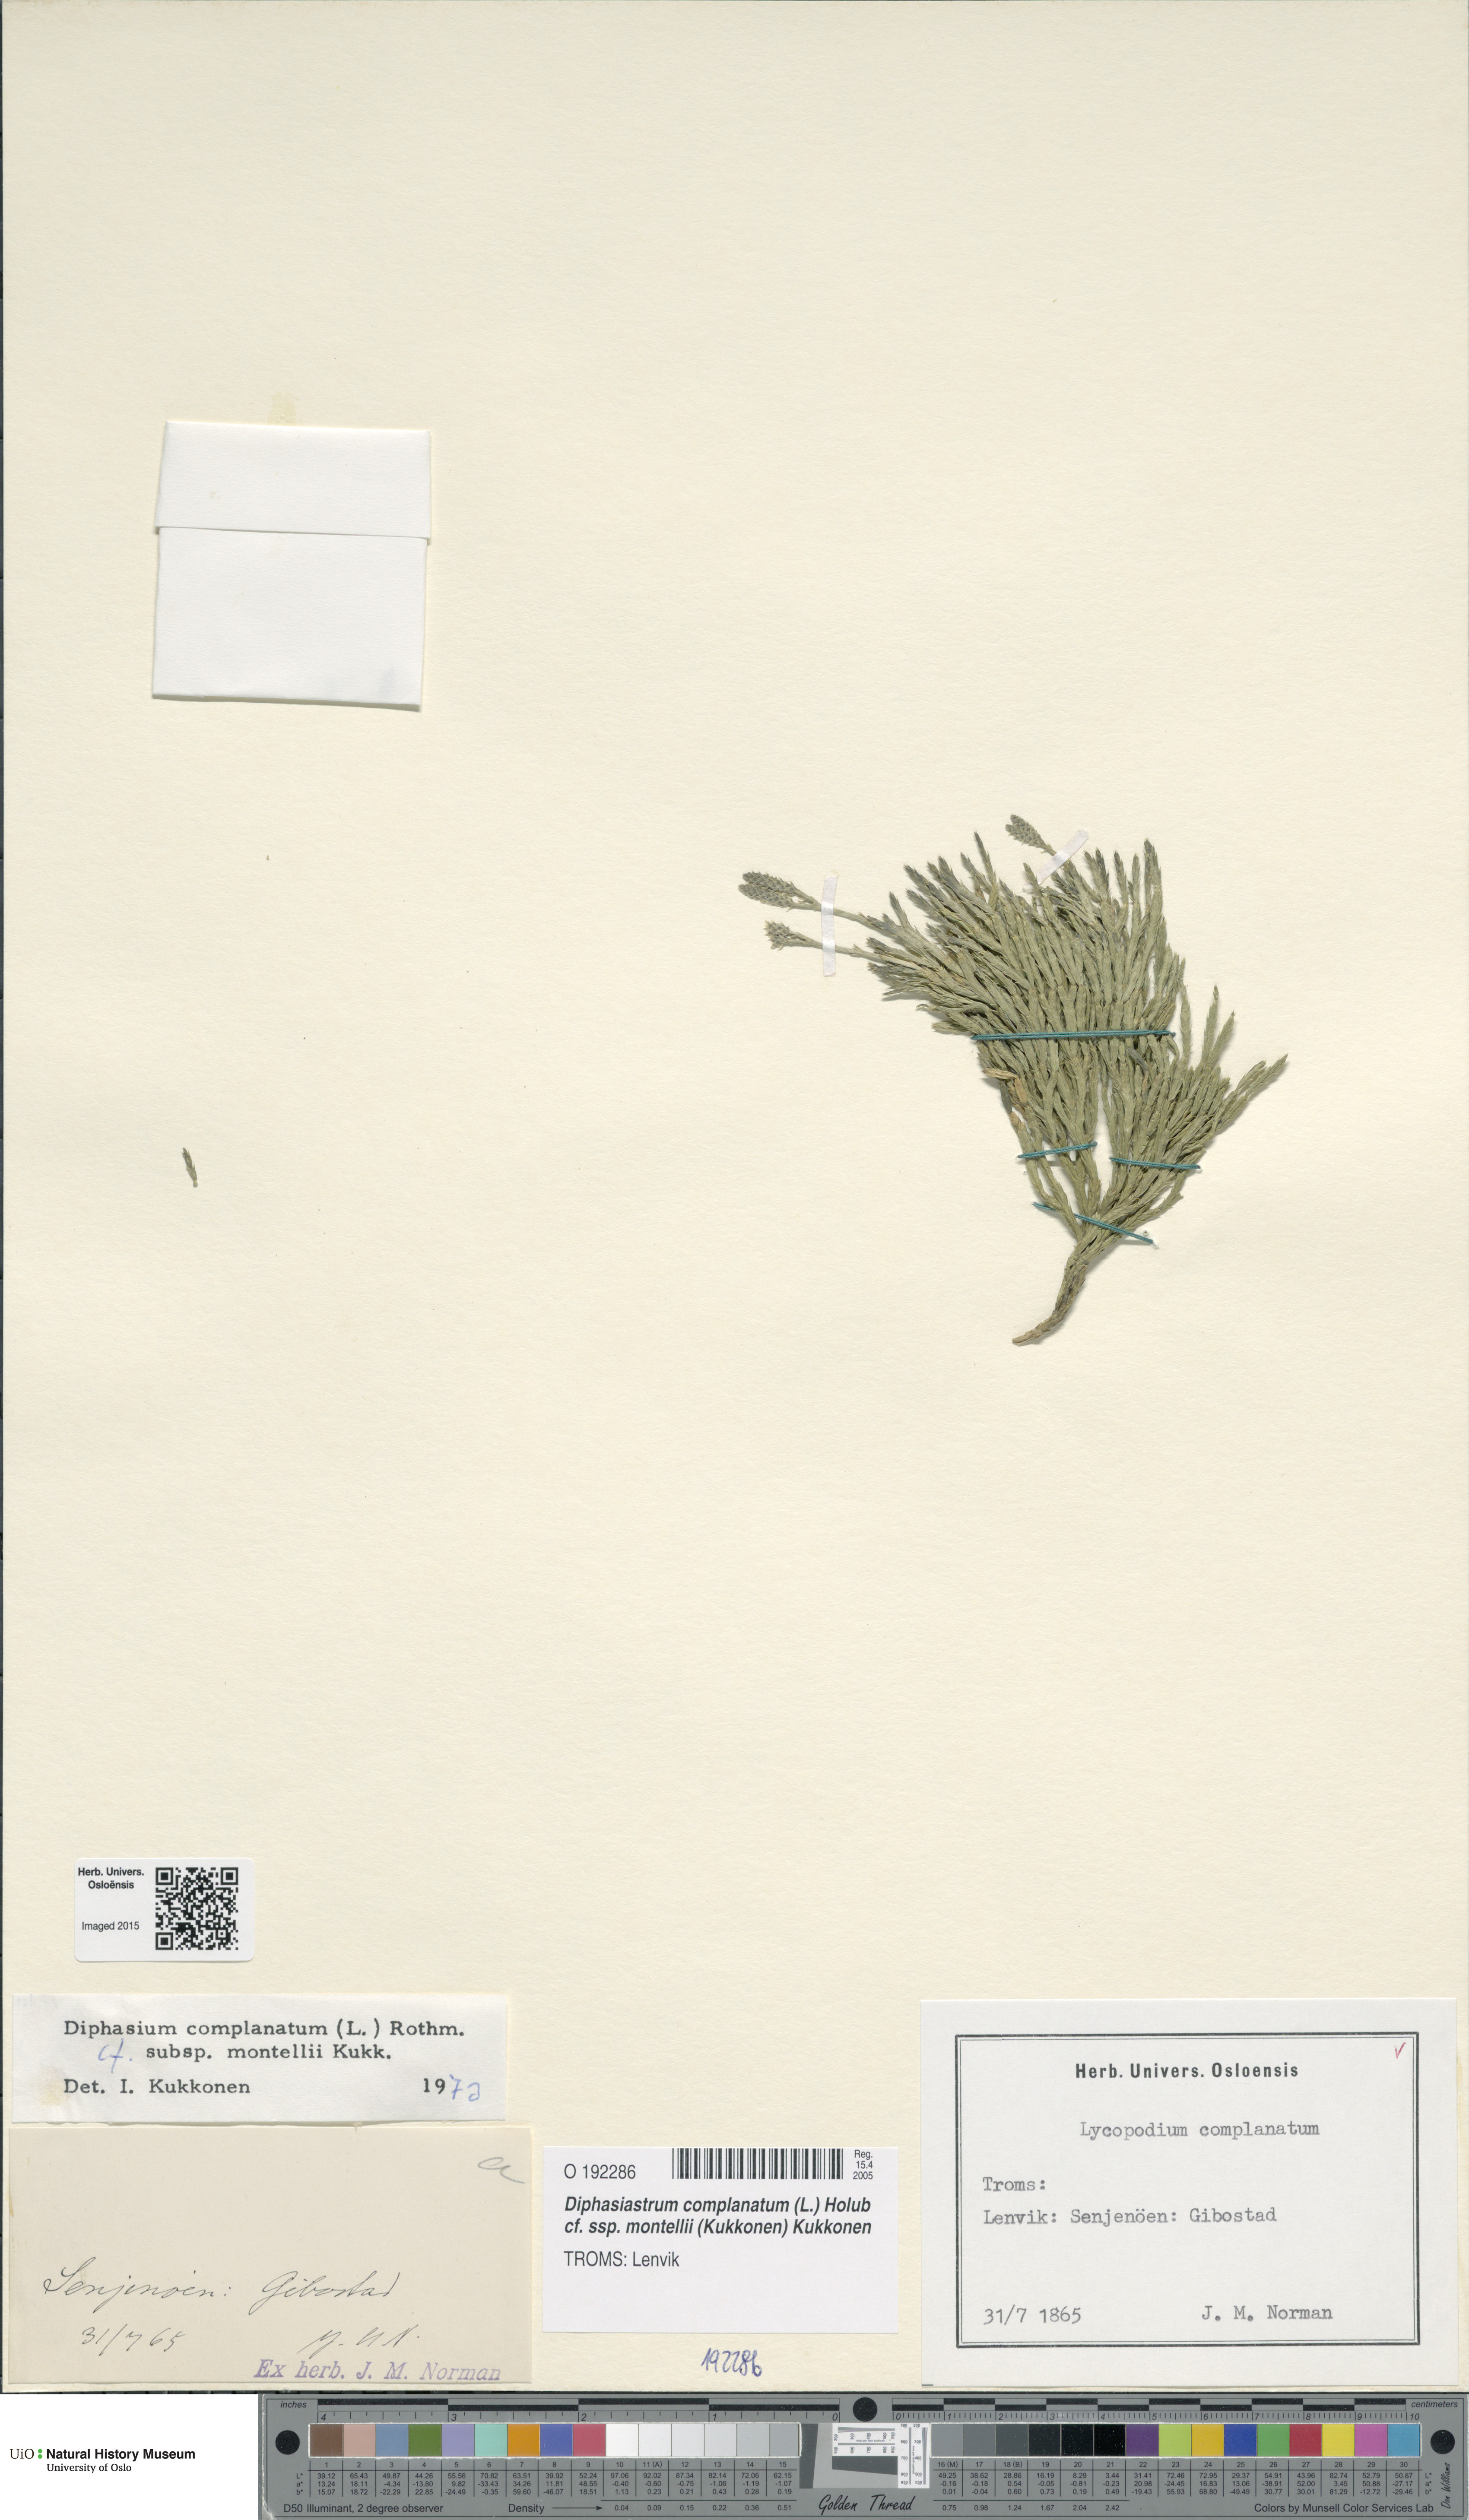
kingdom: Plantae
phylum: Tracheophyta
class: Lycopodiopsida
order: Lycopodiales
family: Lycopodiaceae
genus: Diphasiastrum
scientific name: Diphasiastrum complanatum
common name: Northern running-pine
